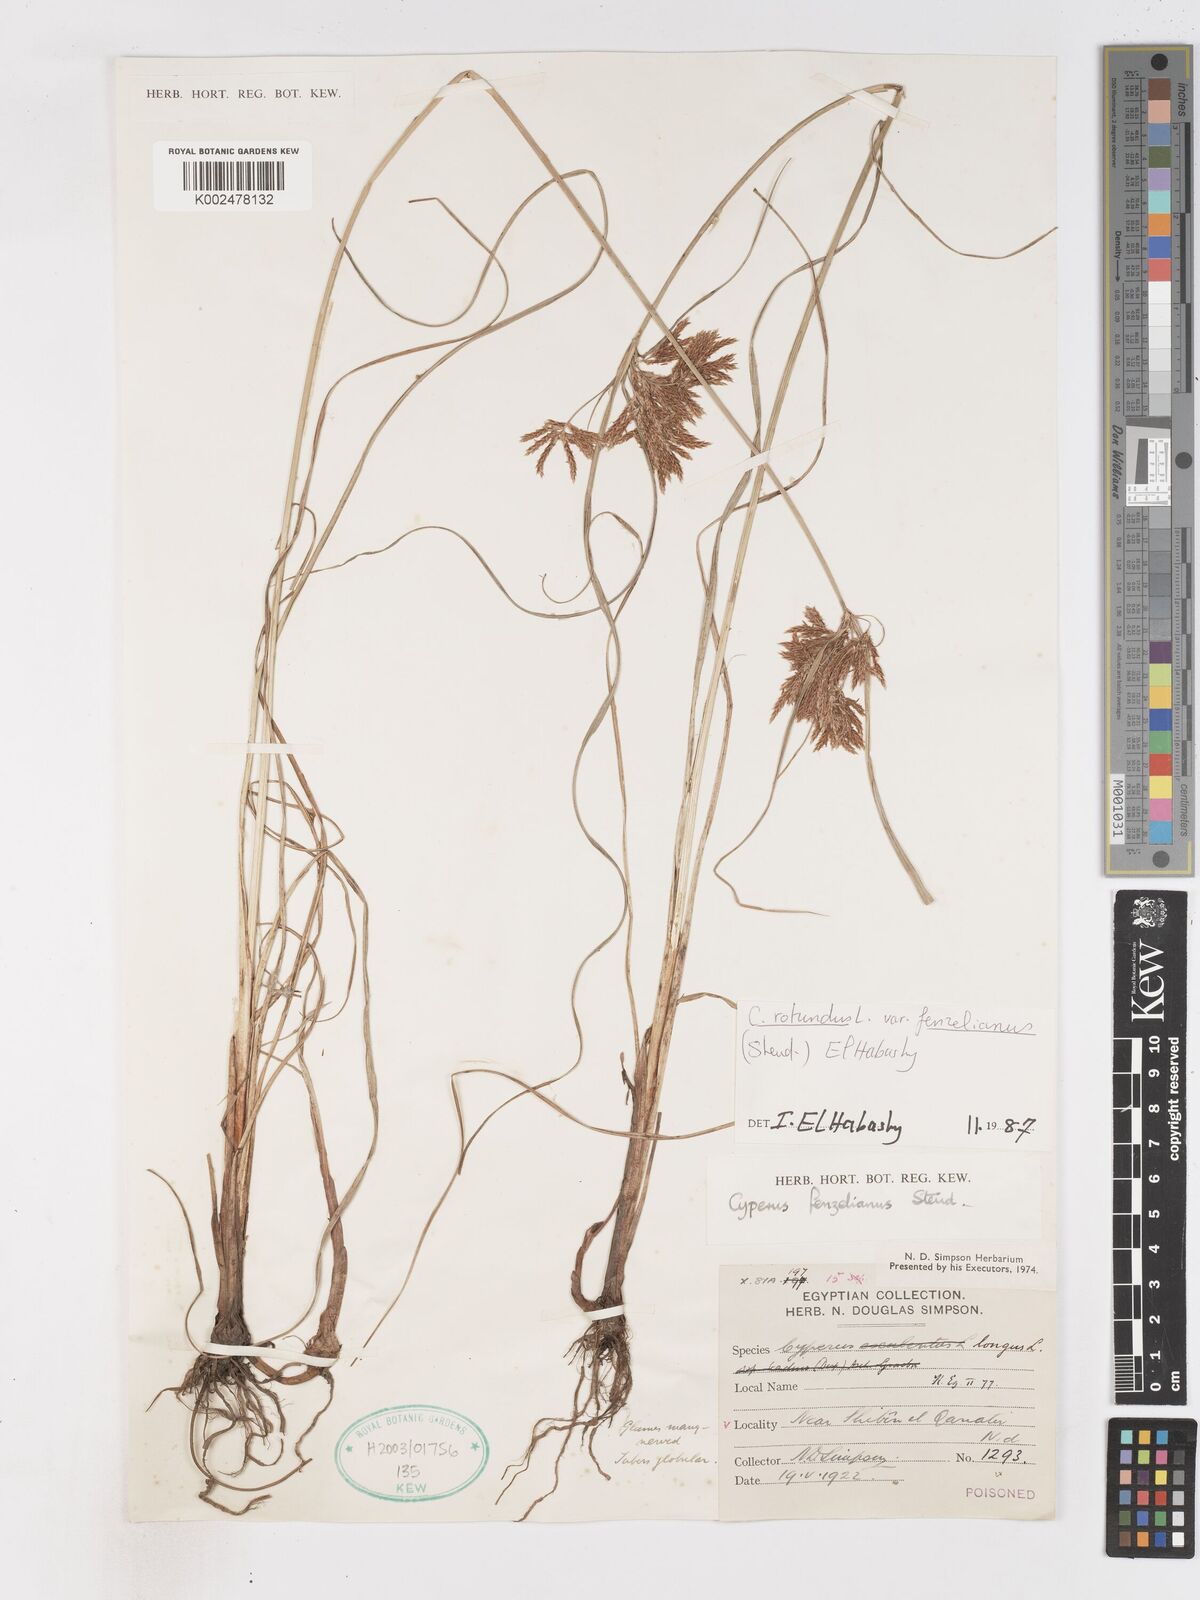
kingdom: Plantae
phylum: Tracheophyta
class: Liliopsida
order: Poales
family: Cyperaceae
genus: Cyperus
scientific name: Cyperus rotundus
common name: Nutgrass
